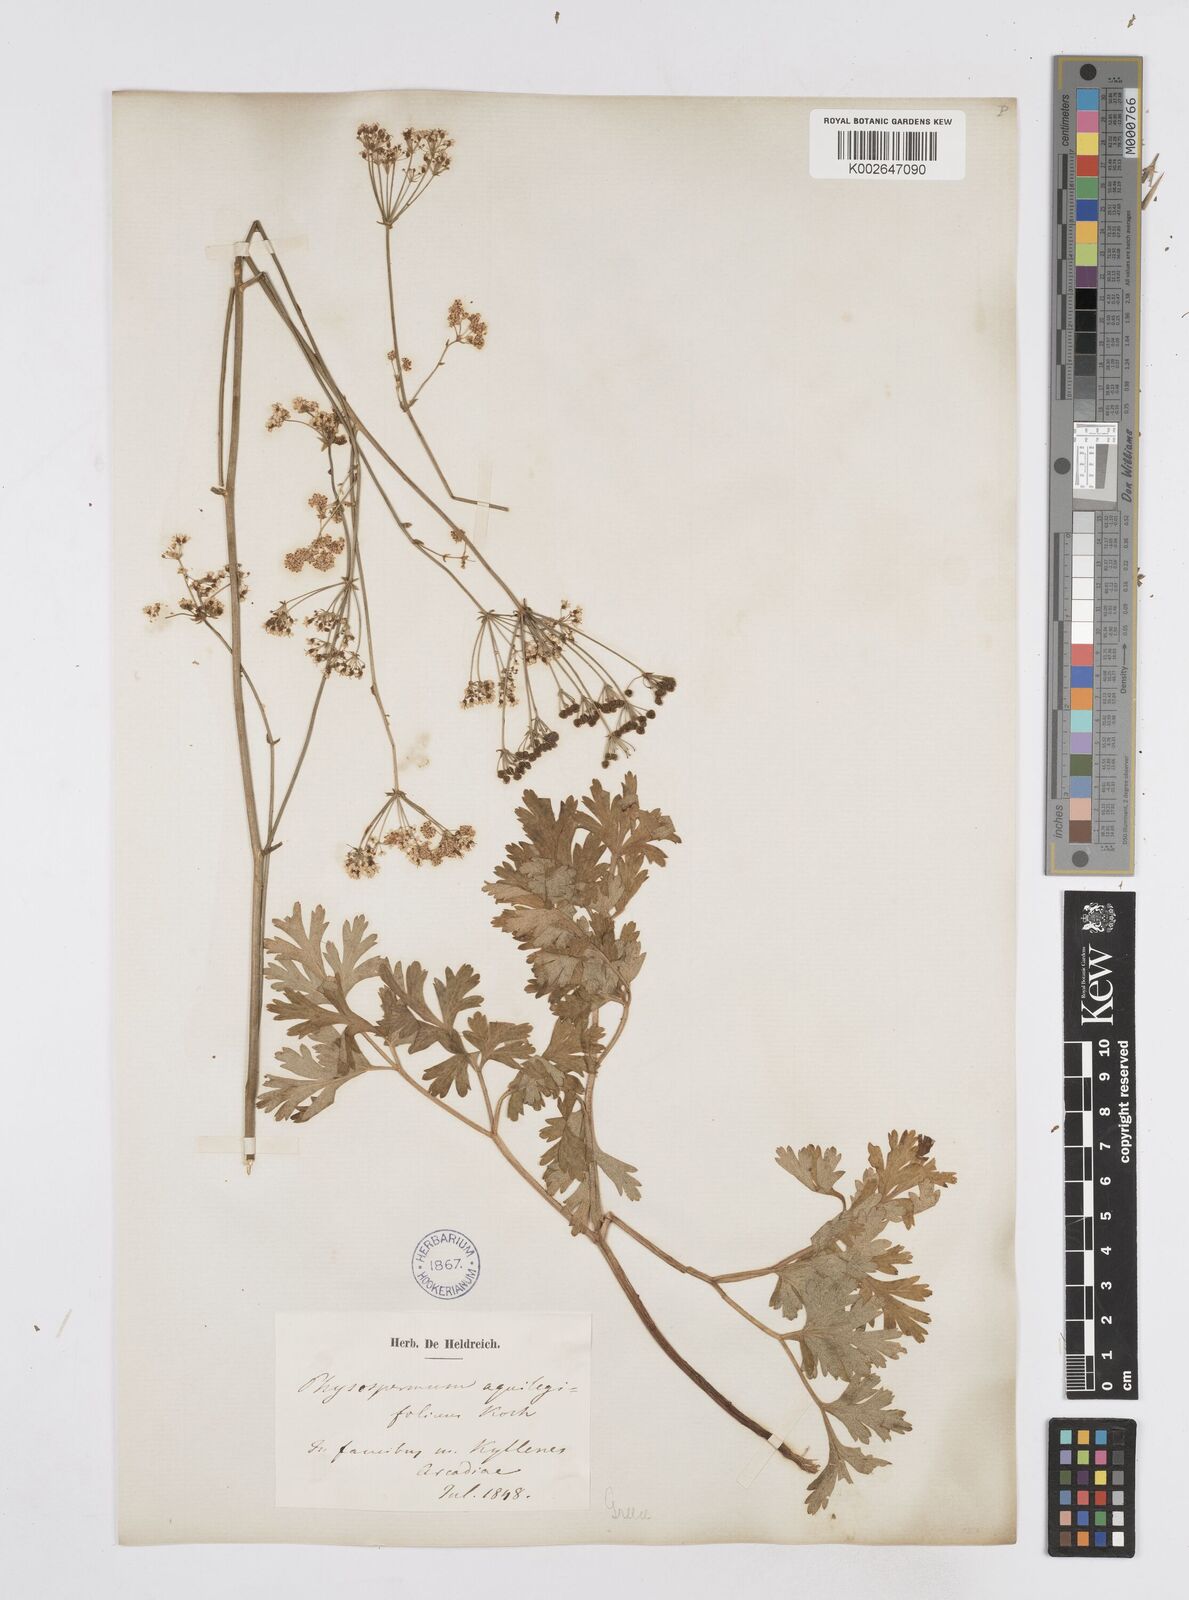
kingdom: Plantae
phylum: Tracheophyta
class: Magnoliopsida
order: Apiales
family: Apiaceae
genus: Physospermum
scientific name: Physospermum cornubiense
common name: Bladderseed
